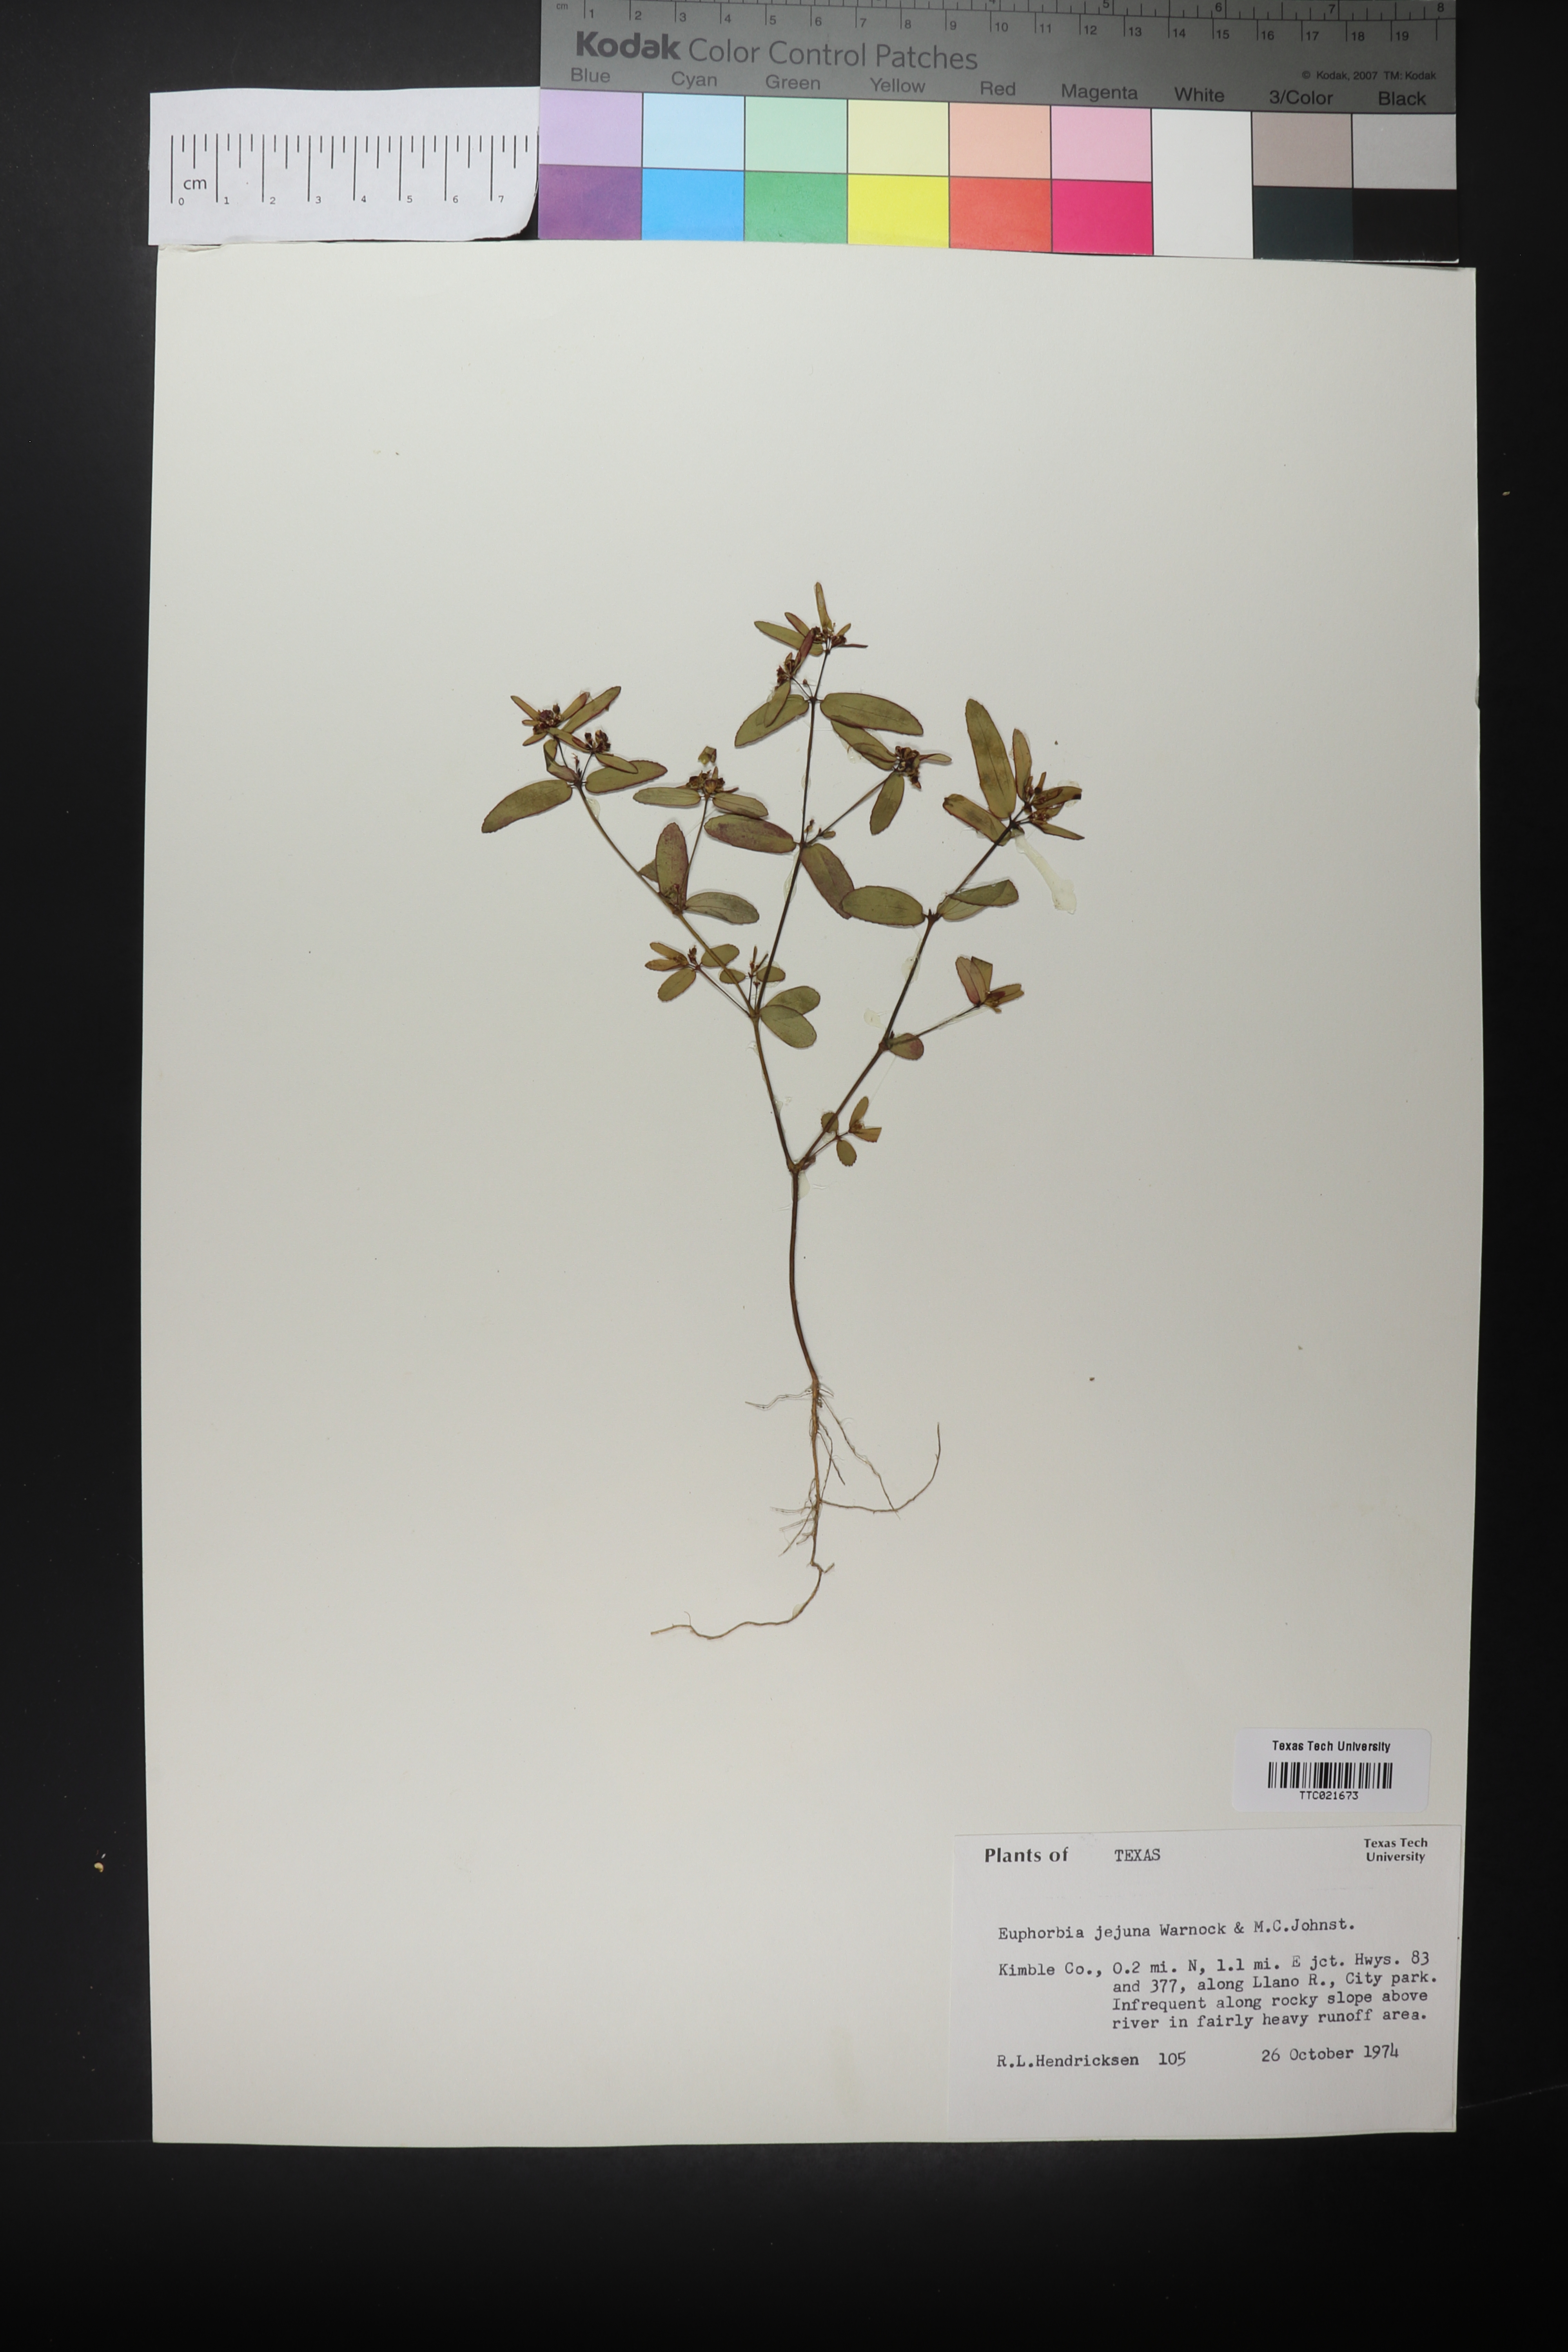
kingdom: Plantae
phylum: Tracheophyta
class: Magnoliopsida
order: Malpighiales
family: Euphorbiaceae
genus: Euphorbia
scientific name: Euphorbia hyssopifolia
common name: Hyssopleaf sandmat
